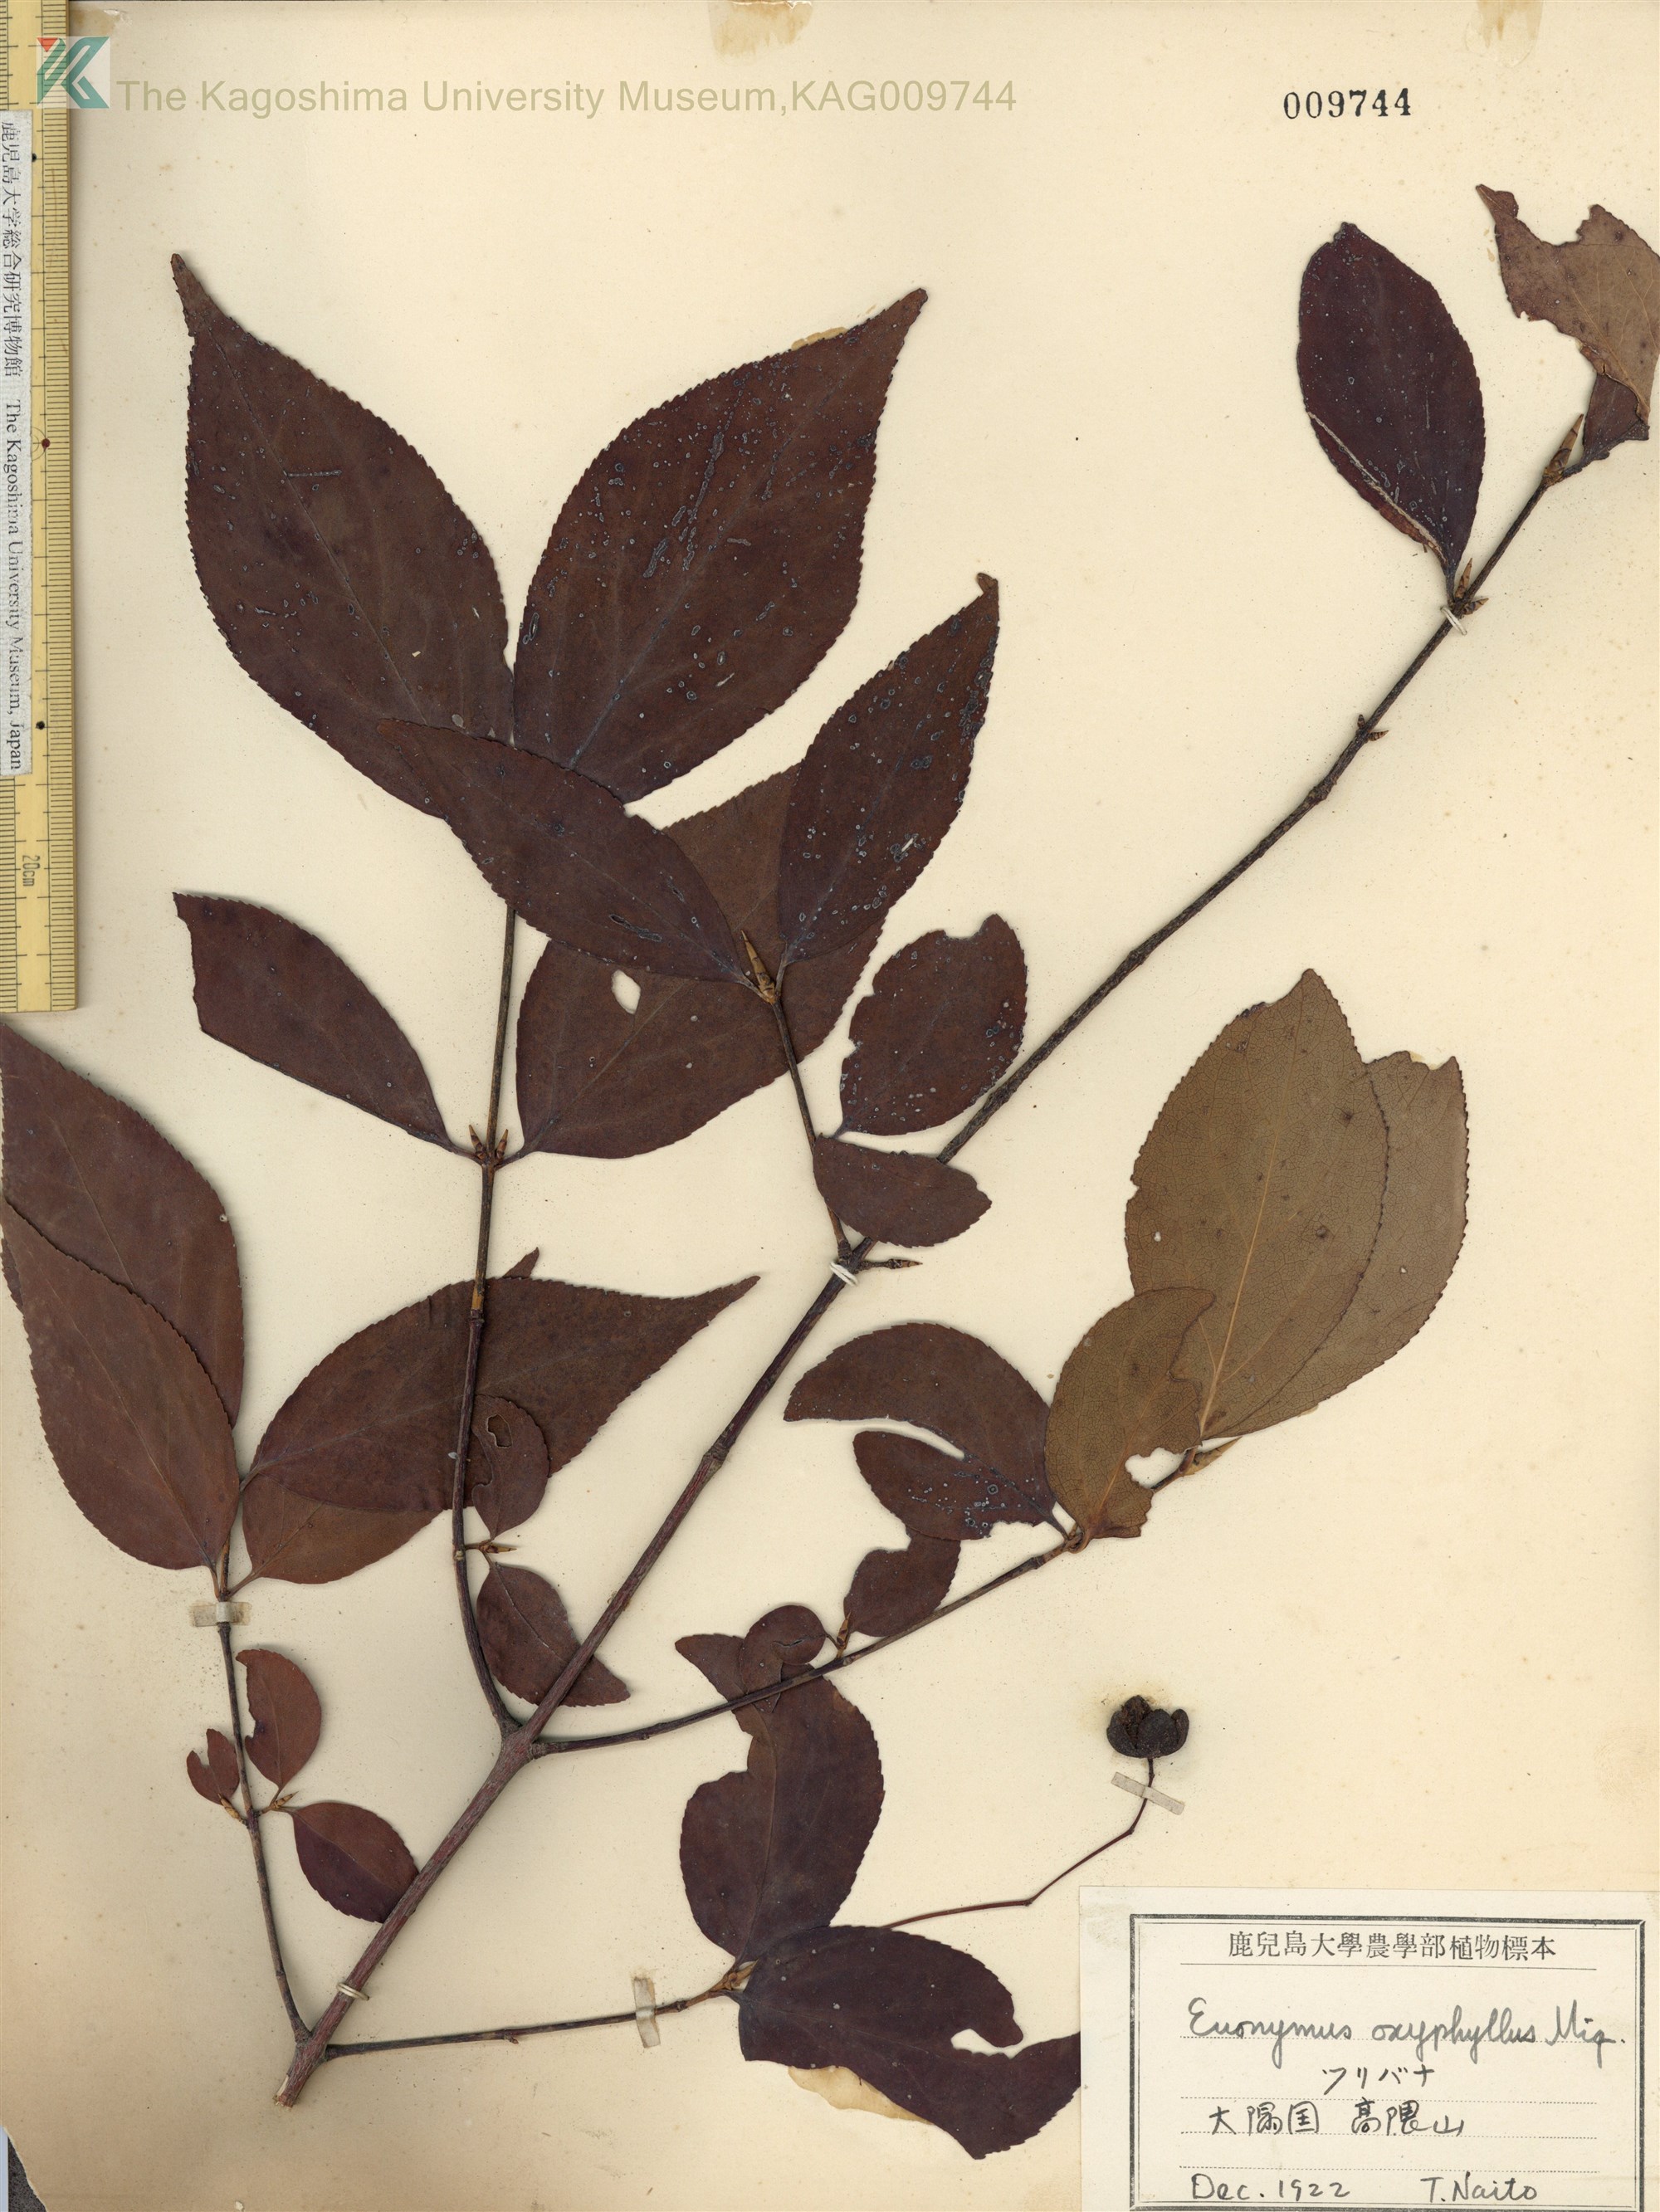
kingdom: Plantae
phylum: Tracheophyta
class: Magnoliopsida
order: Celastrales
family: Celastraceae
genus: Euonymus
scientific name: Euonymus oxyphyllus
